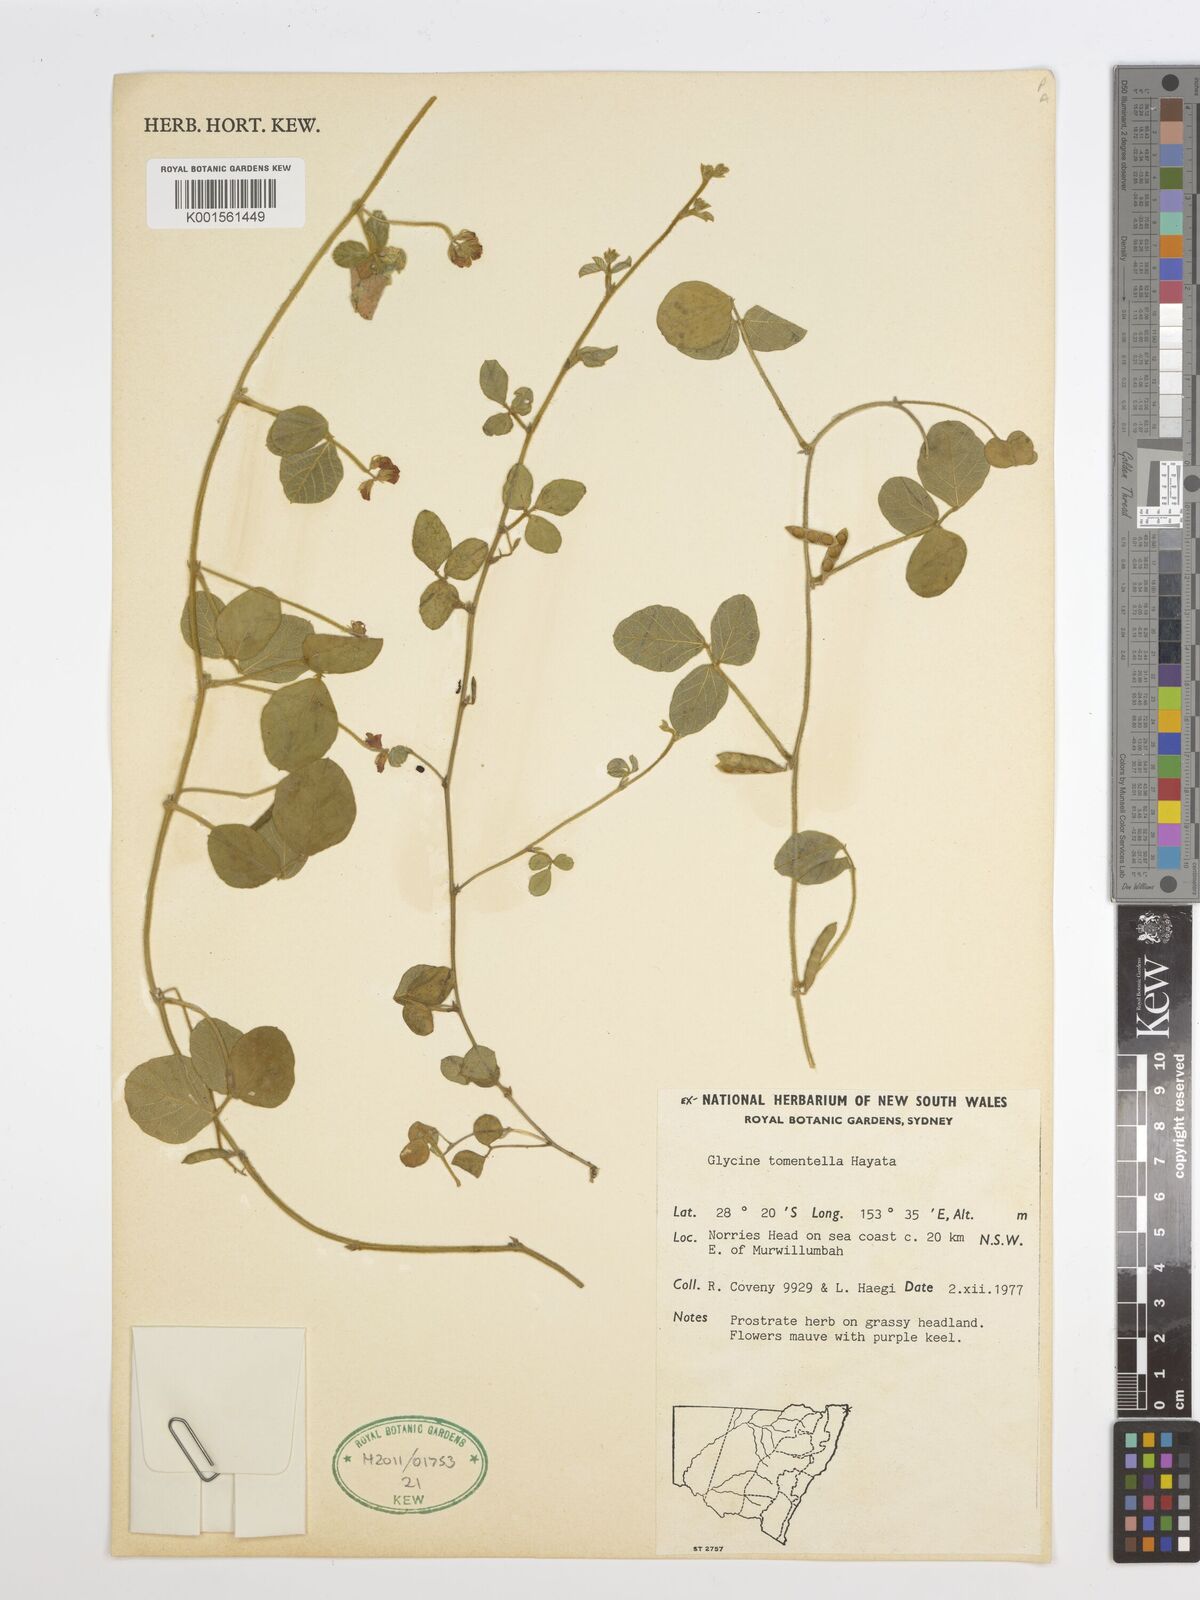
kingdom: Plantae
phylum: Tracheophyta
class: Magnoliopsida
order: Fabales
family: Fabaceae
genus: Glycine
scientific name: Glycine tomentella
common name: Hairy glycine
